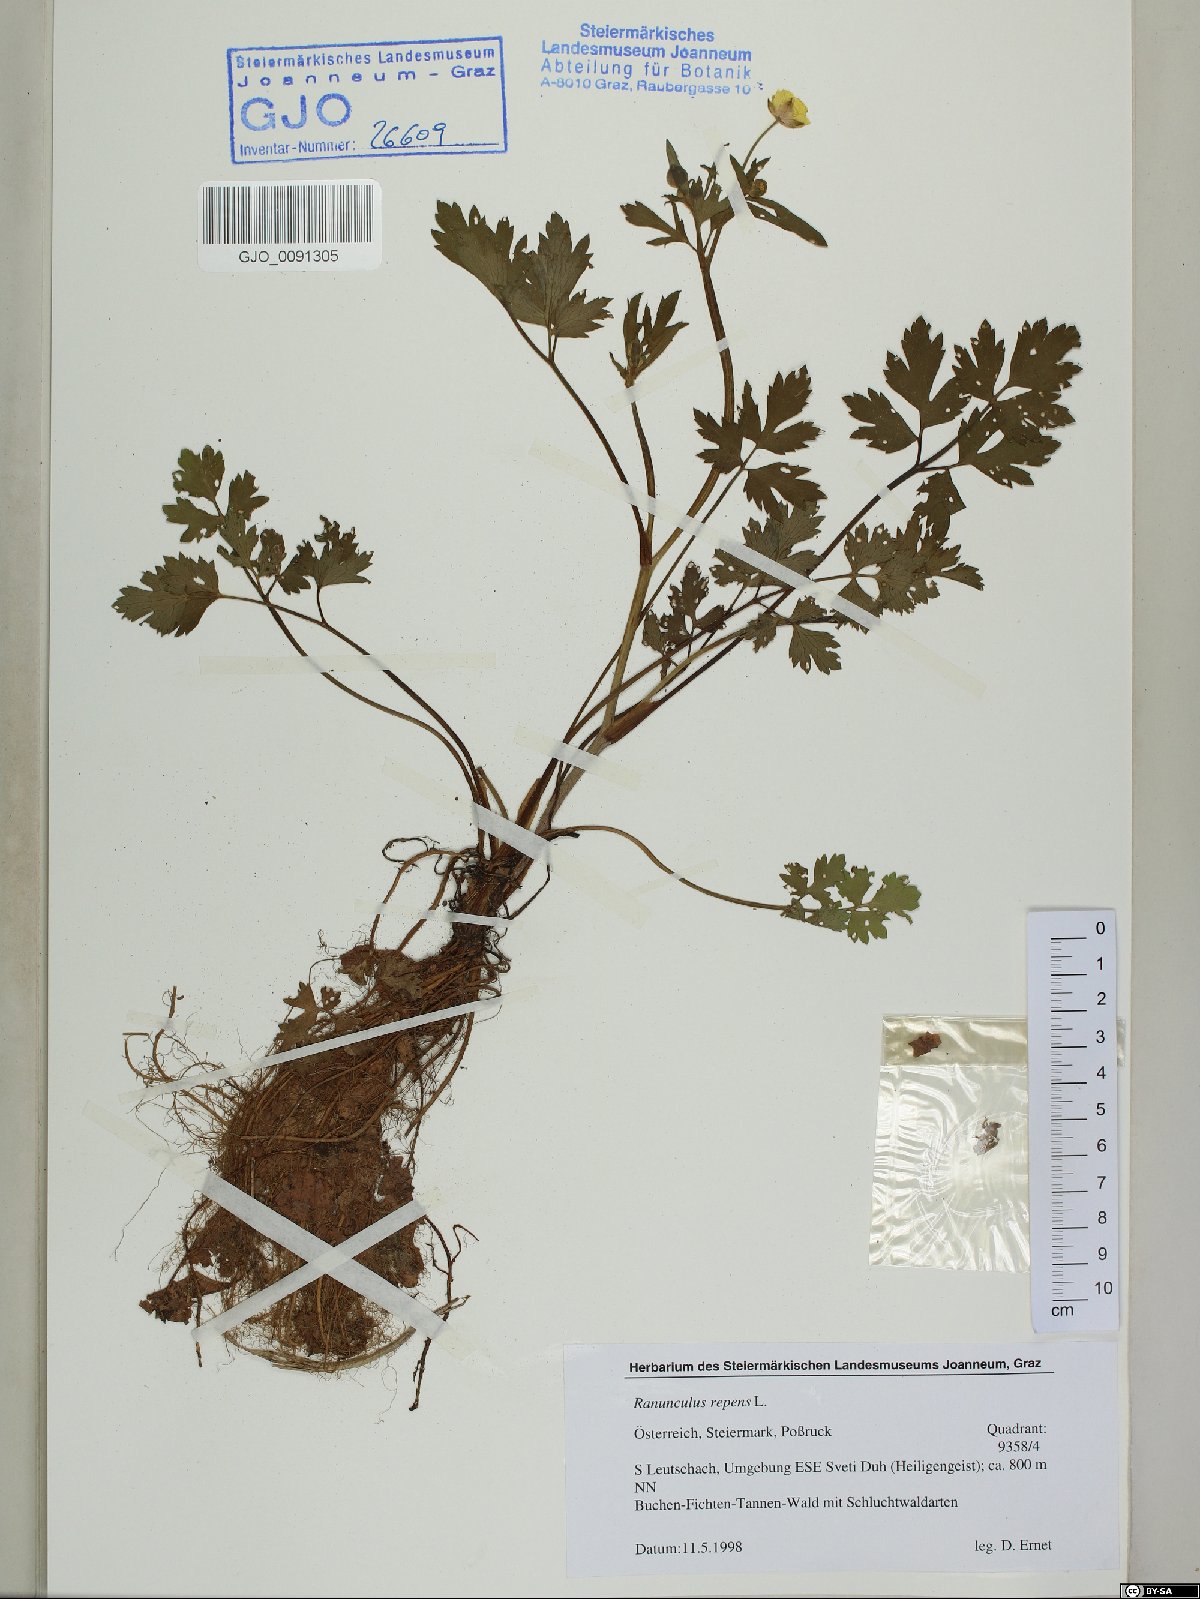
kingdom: Plantae
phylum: Tracheophyta
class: Magnoliopsida
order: Ranunculales
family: Ranunculaceae
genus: Ranunculus
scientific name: Ranunculus repens
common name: Creeping buttercup
